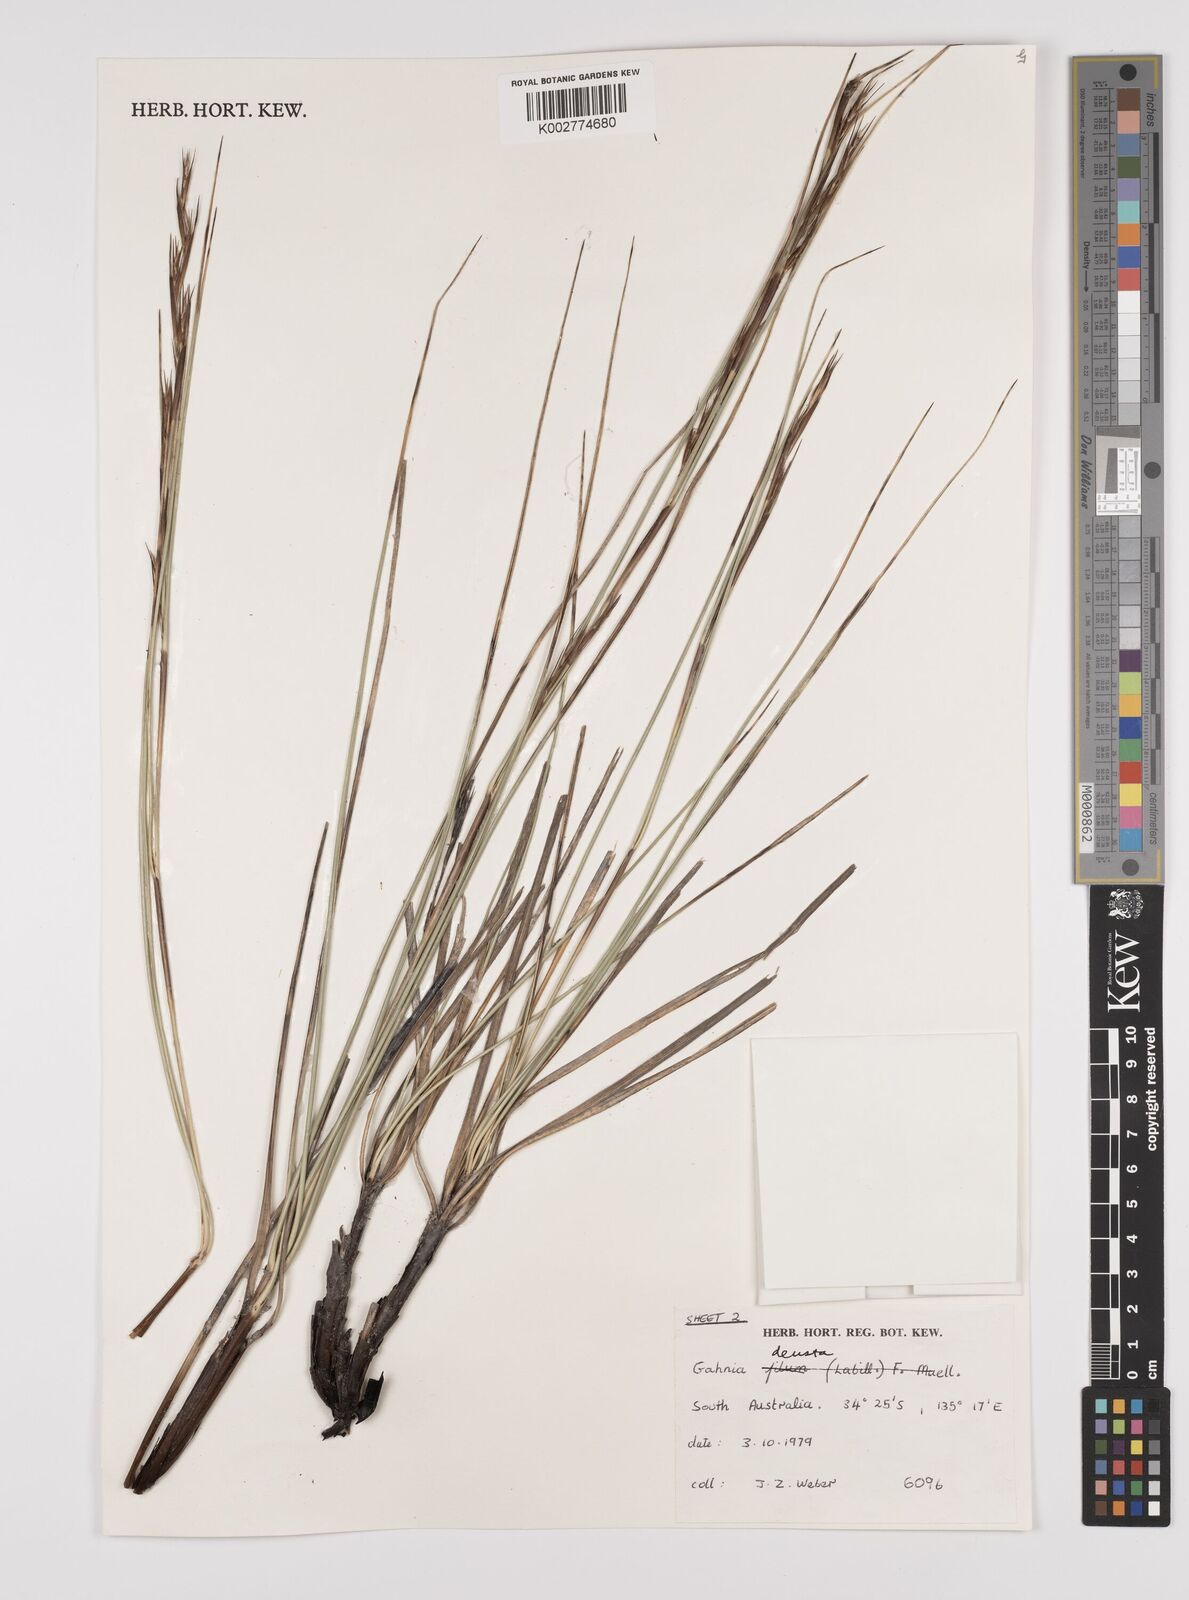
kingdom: Plantae
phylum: Tracheophyta
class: Liliopsida
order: Poales
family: Cyperaceae
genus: Gahnia
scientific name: Gahnia deusta
